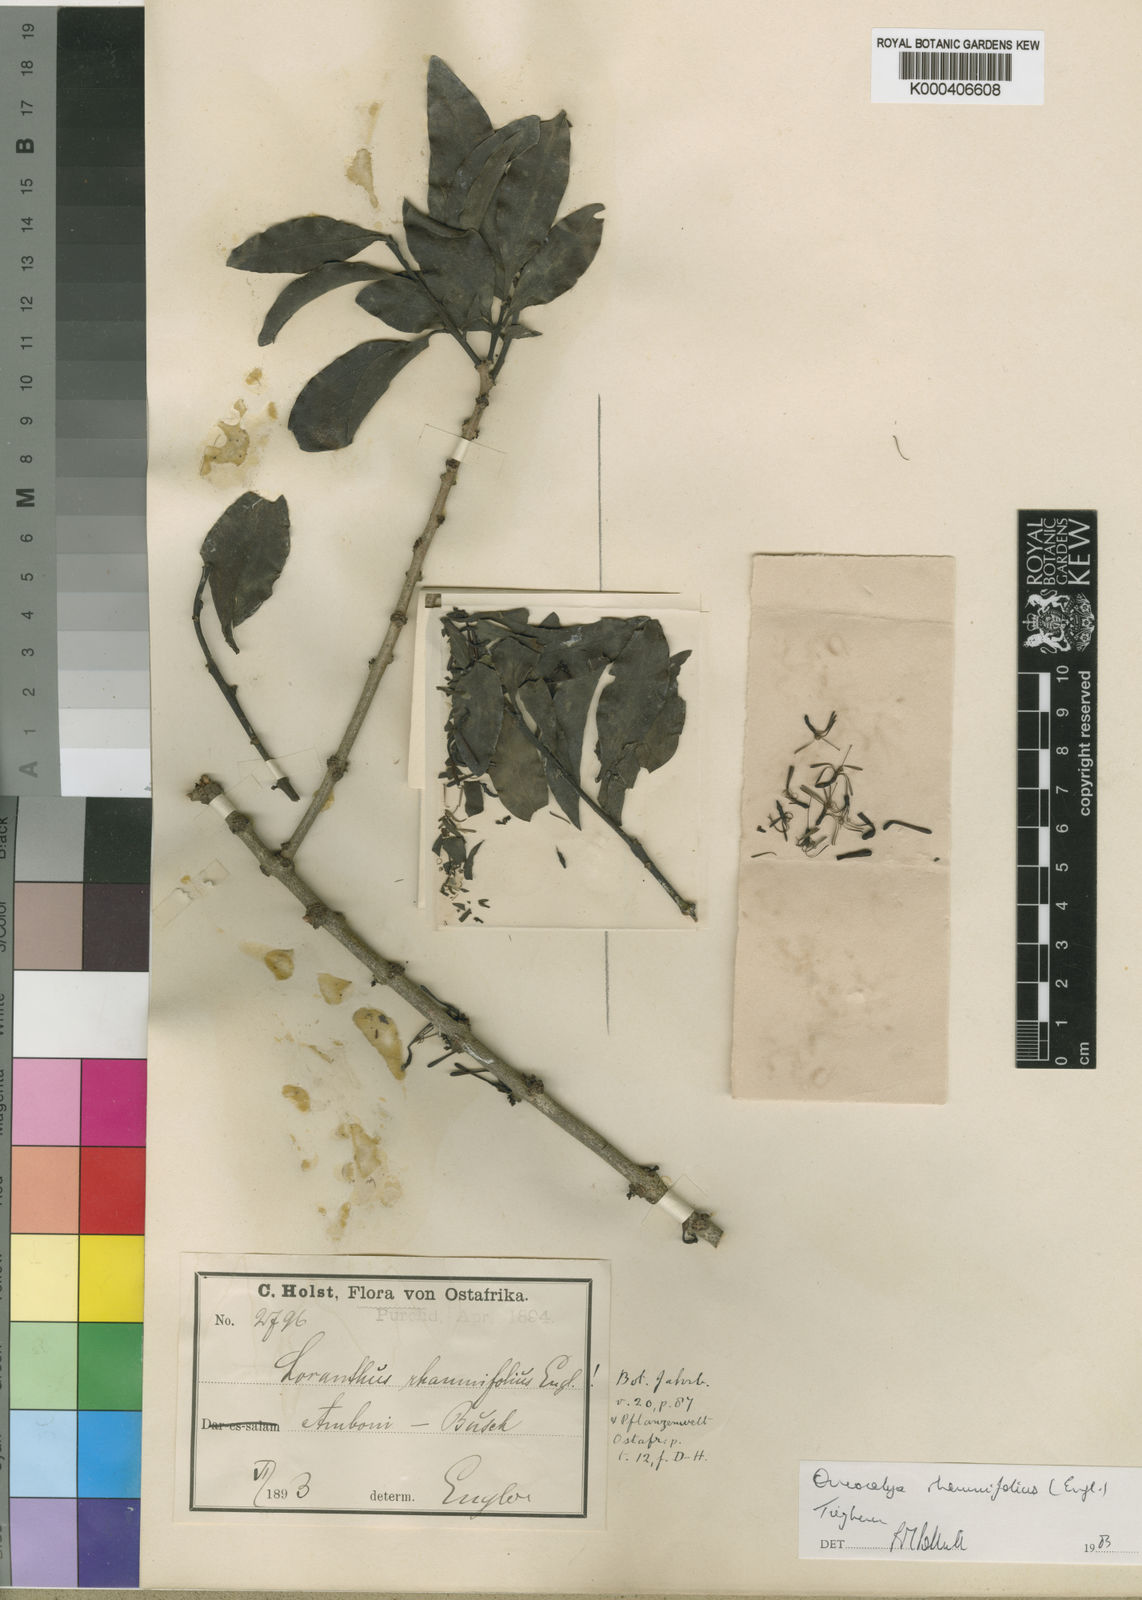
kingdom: Plantae
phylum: Tracheophyta
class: Magnoliopsida
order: Santalales
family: Loranthaceae
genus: Spragueanella
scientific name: Spragueanella rhamnifolia
